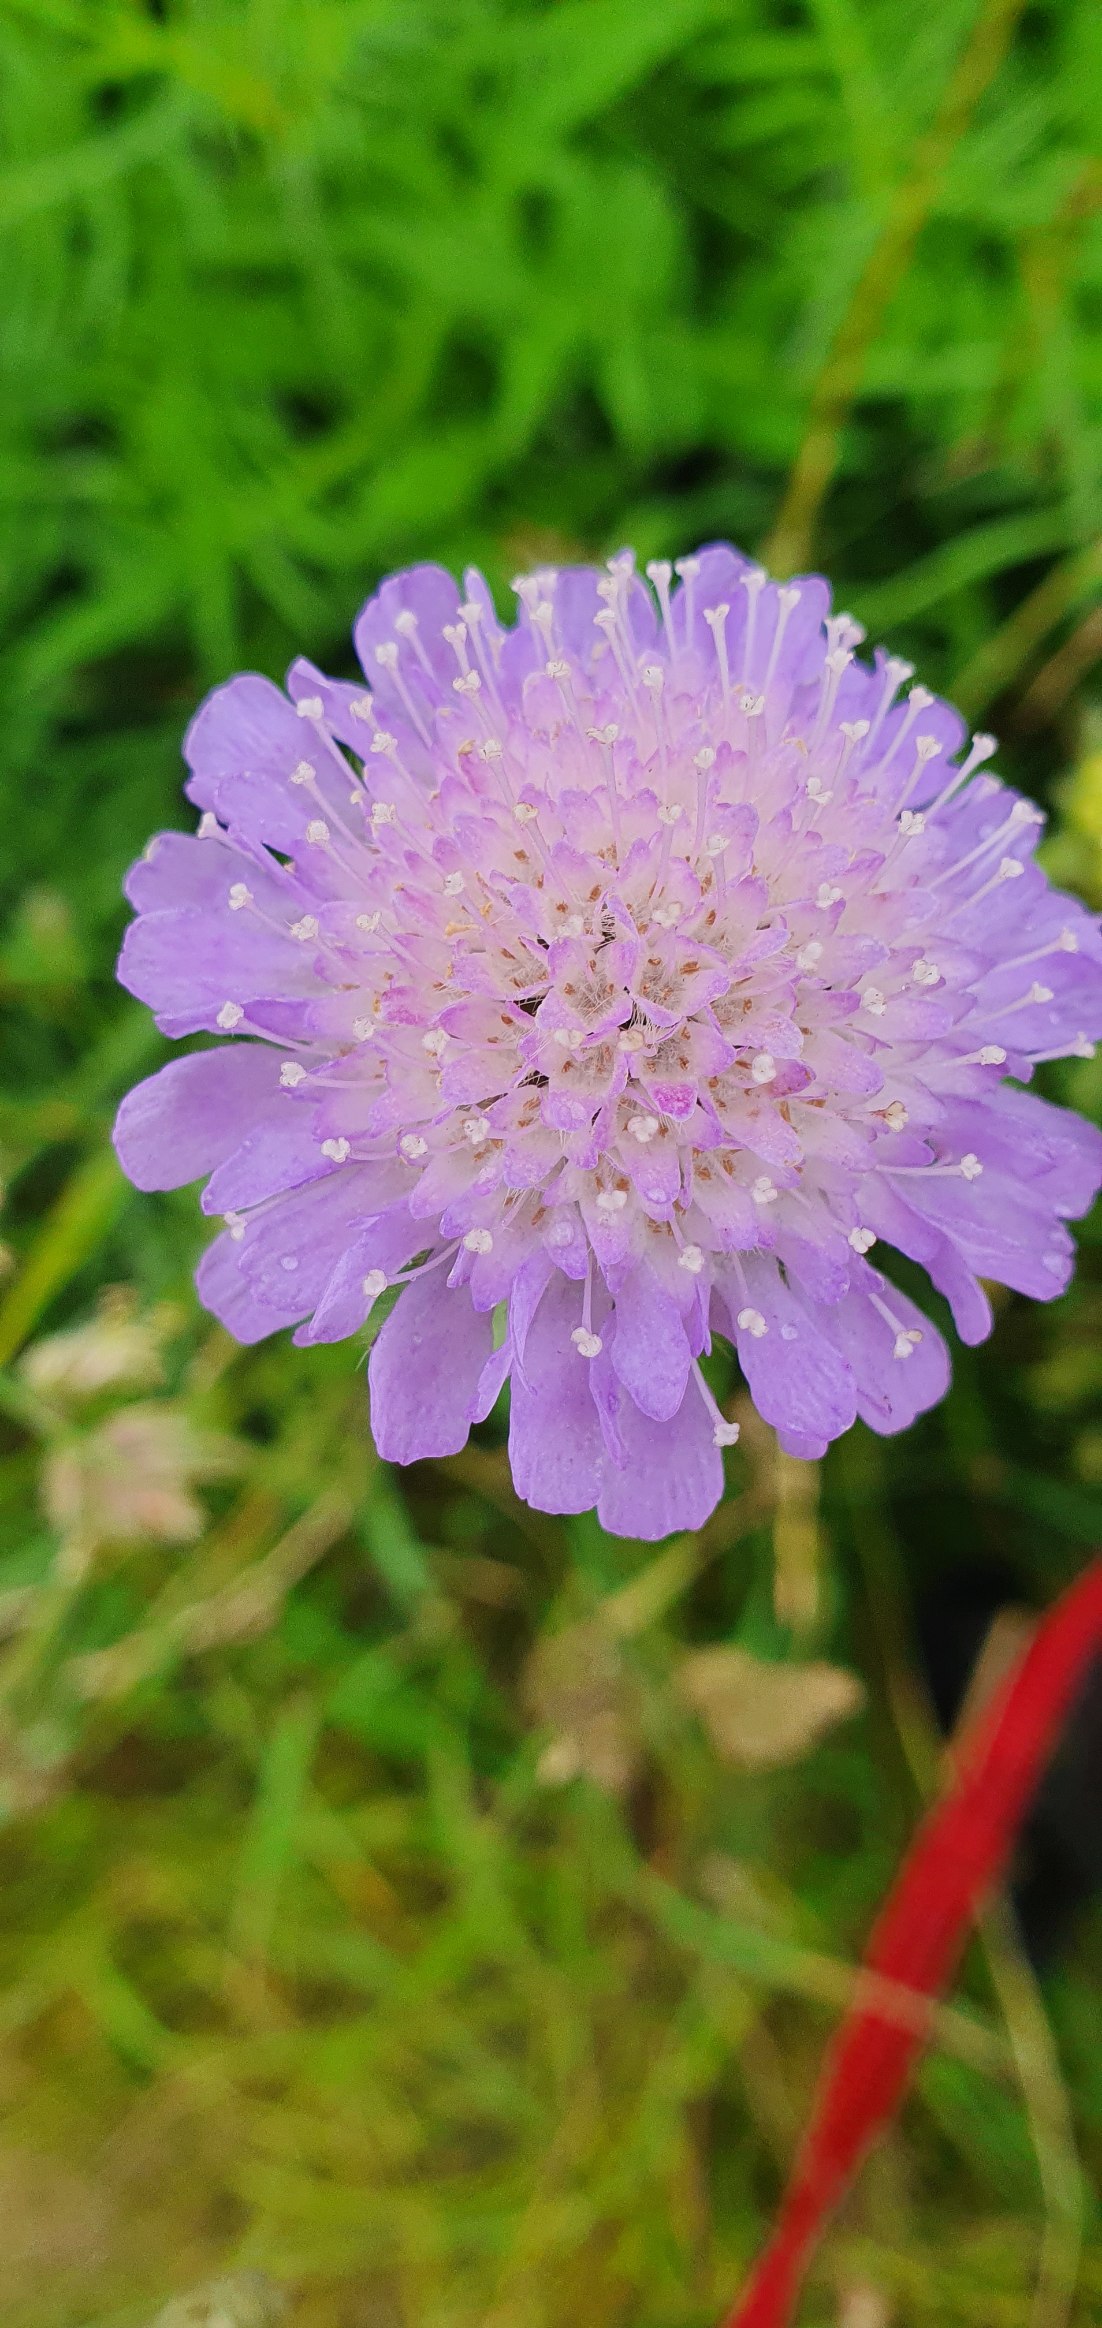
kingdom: Plantae
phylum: Tracheophyta
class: Magnoliopsida
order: Dipsacales
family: Caprifoliaceae
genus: Knautia
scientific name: Knautia arvensis
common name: Blåhat
